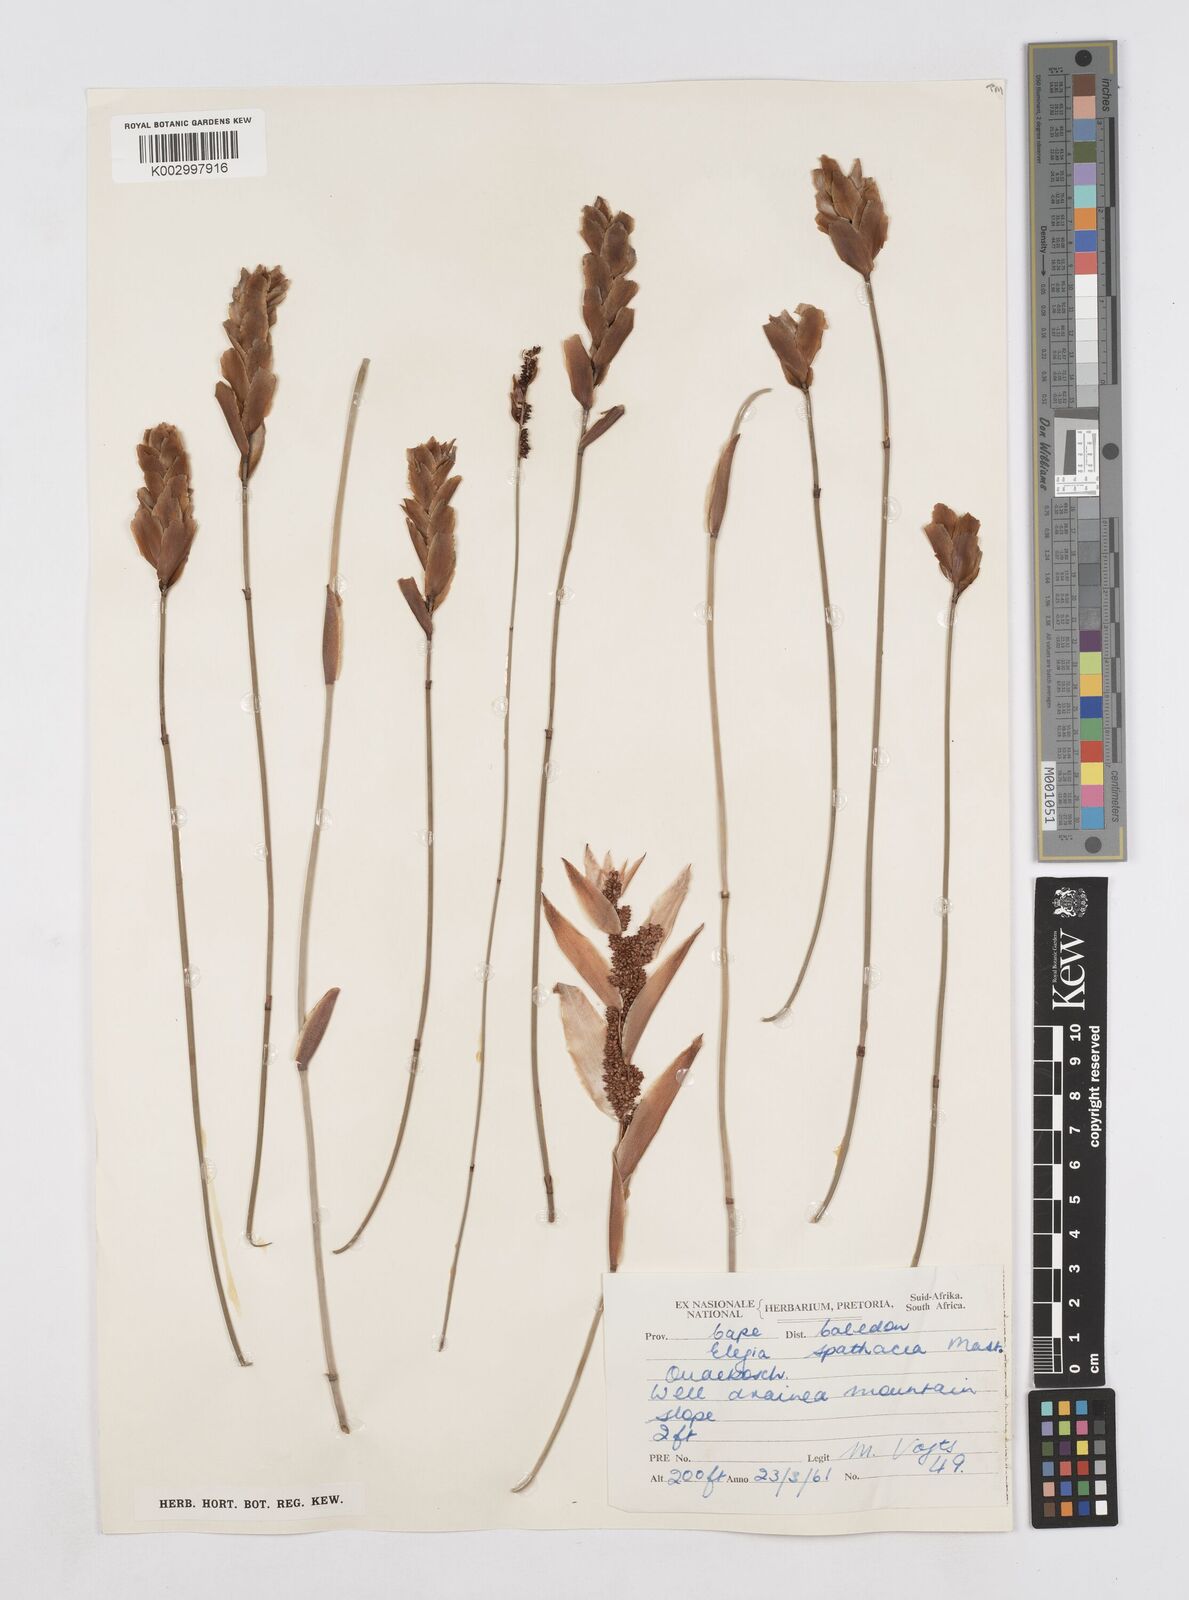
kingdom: Plantae
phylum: Tracheophyta
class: Liliopsida
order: Poales
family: Restionaceae
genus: Elegia
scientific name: Elegia spathacea
